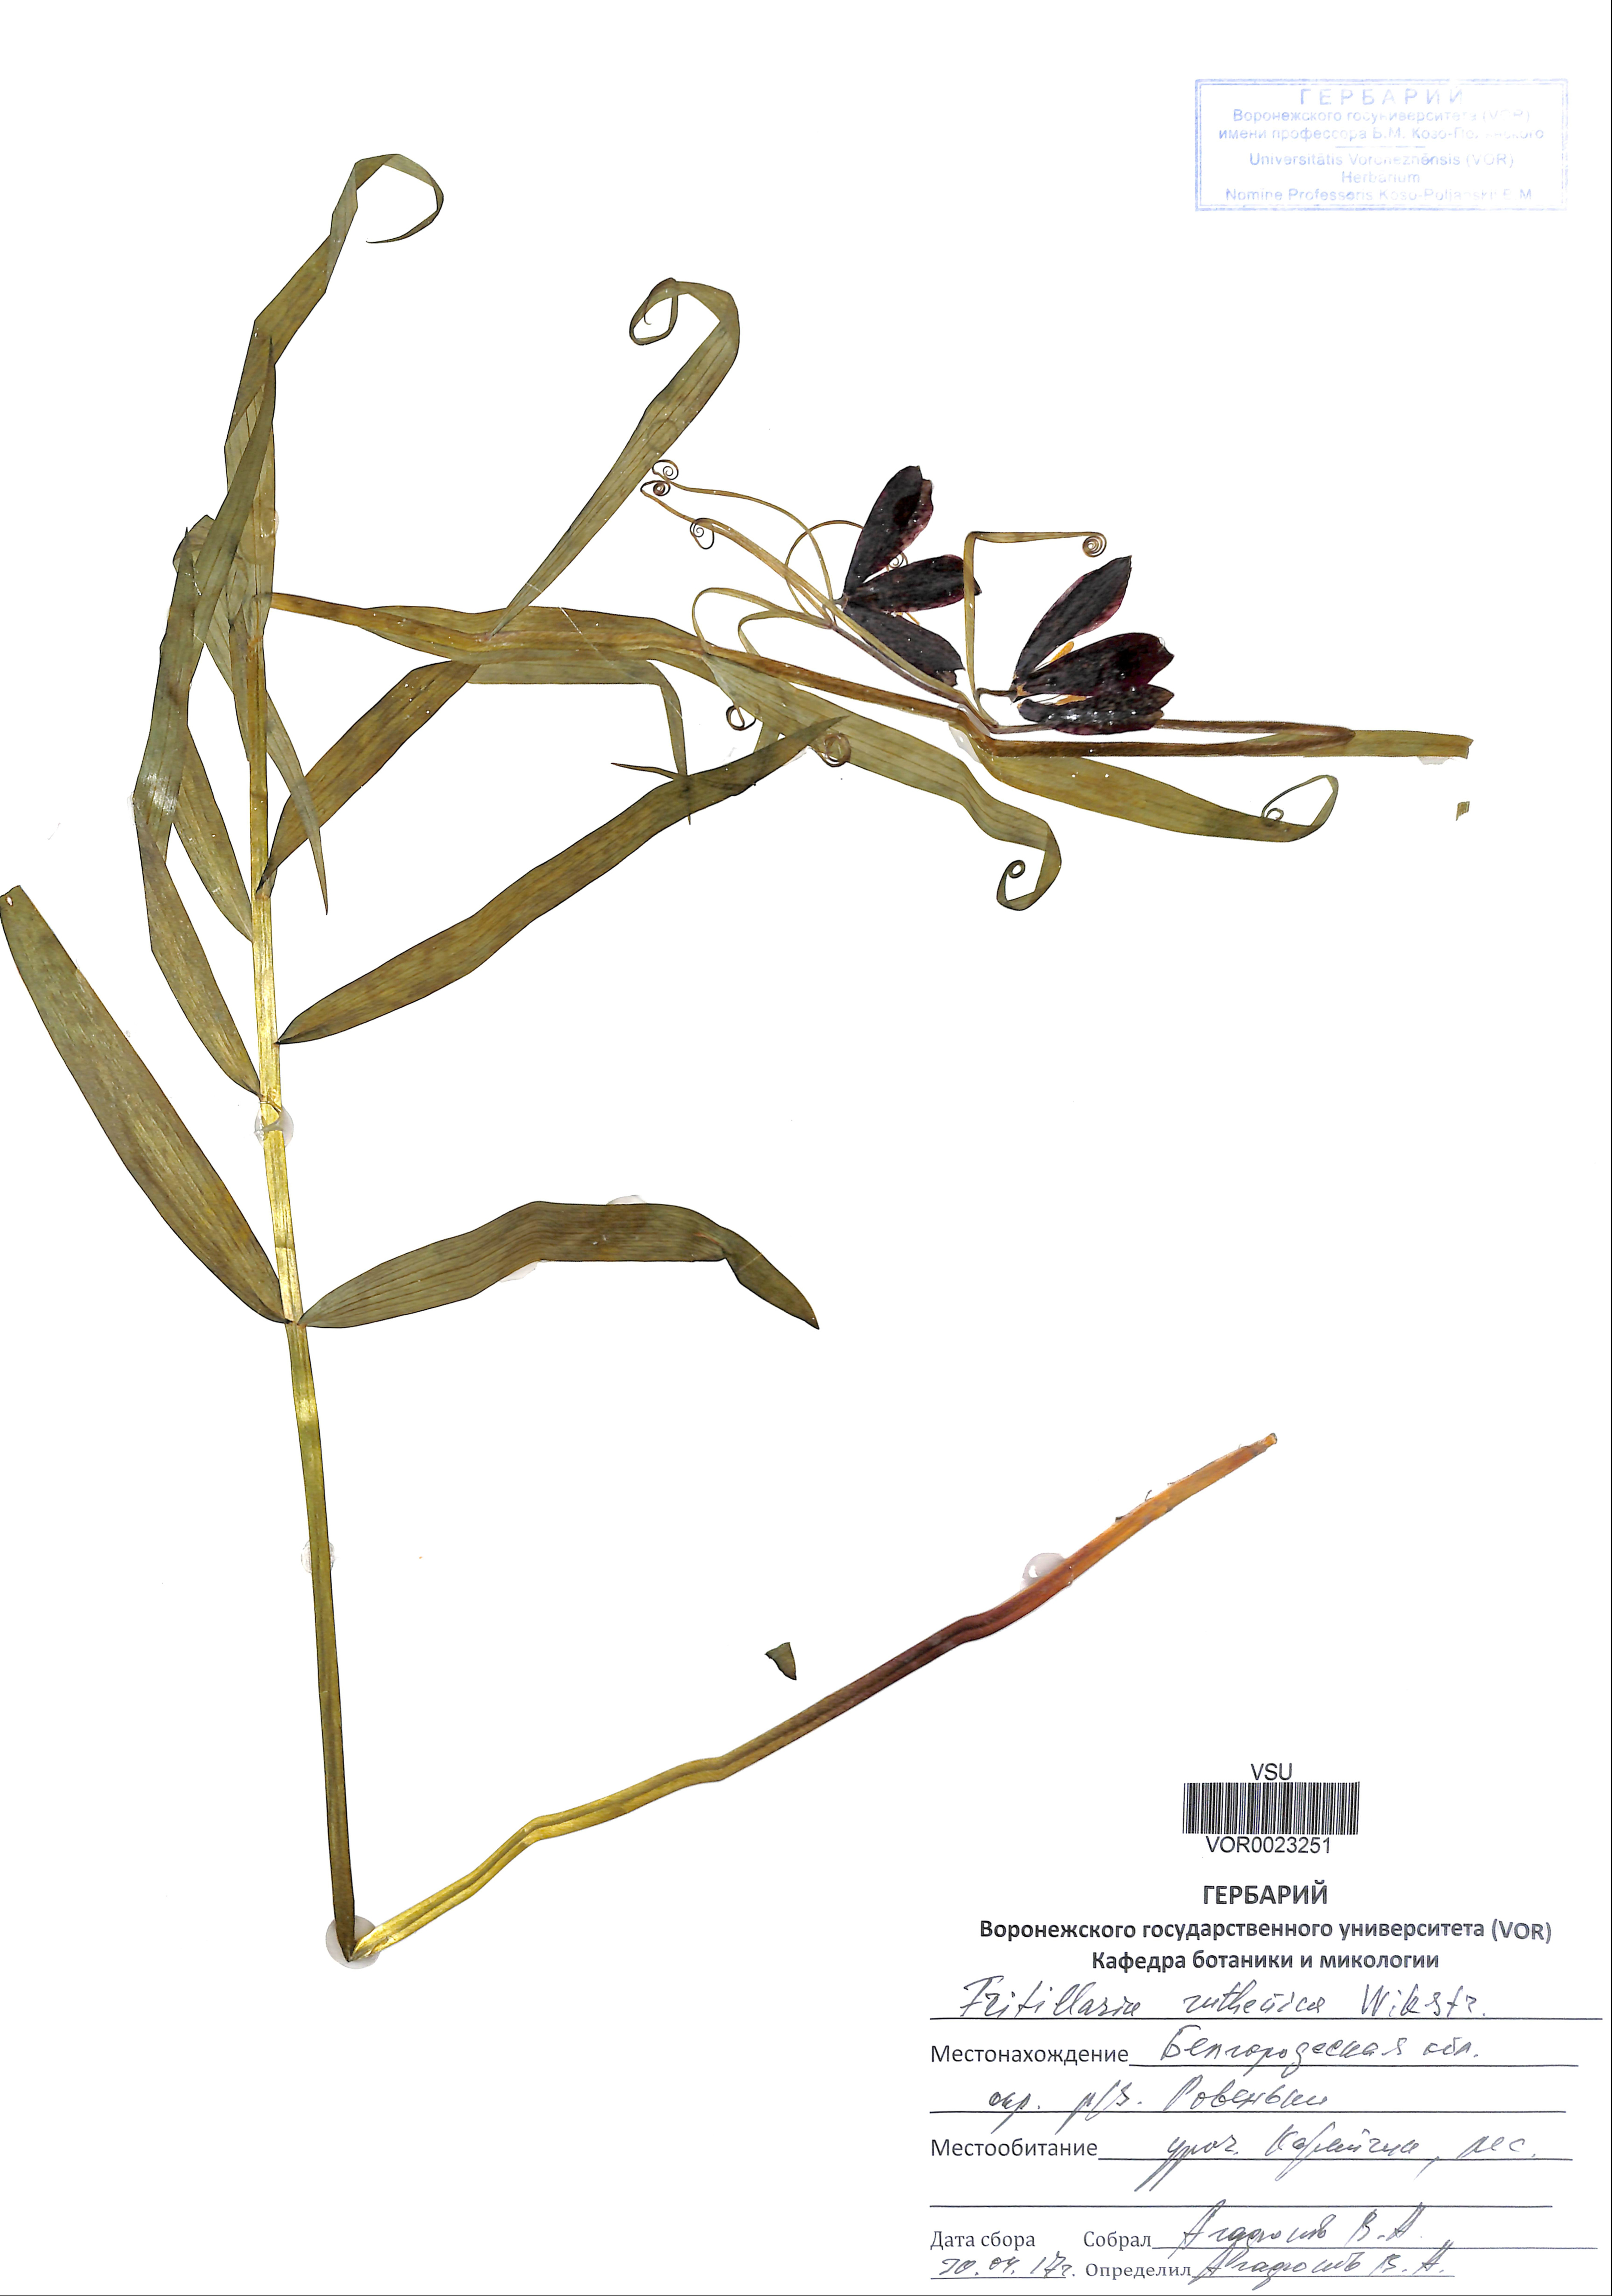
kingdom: Plantae
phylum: Tracheophyta
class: Liliopsida
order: Liliales
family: Liliaceae
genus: Fritillaria
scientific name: Fritillaria ruthenica
